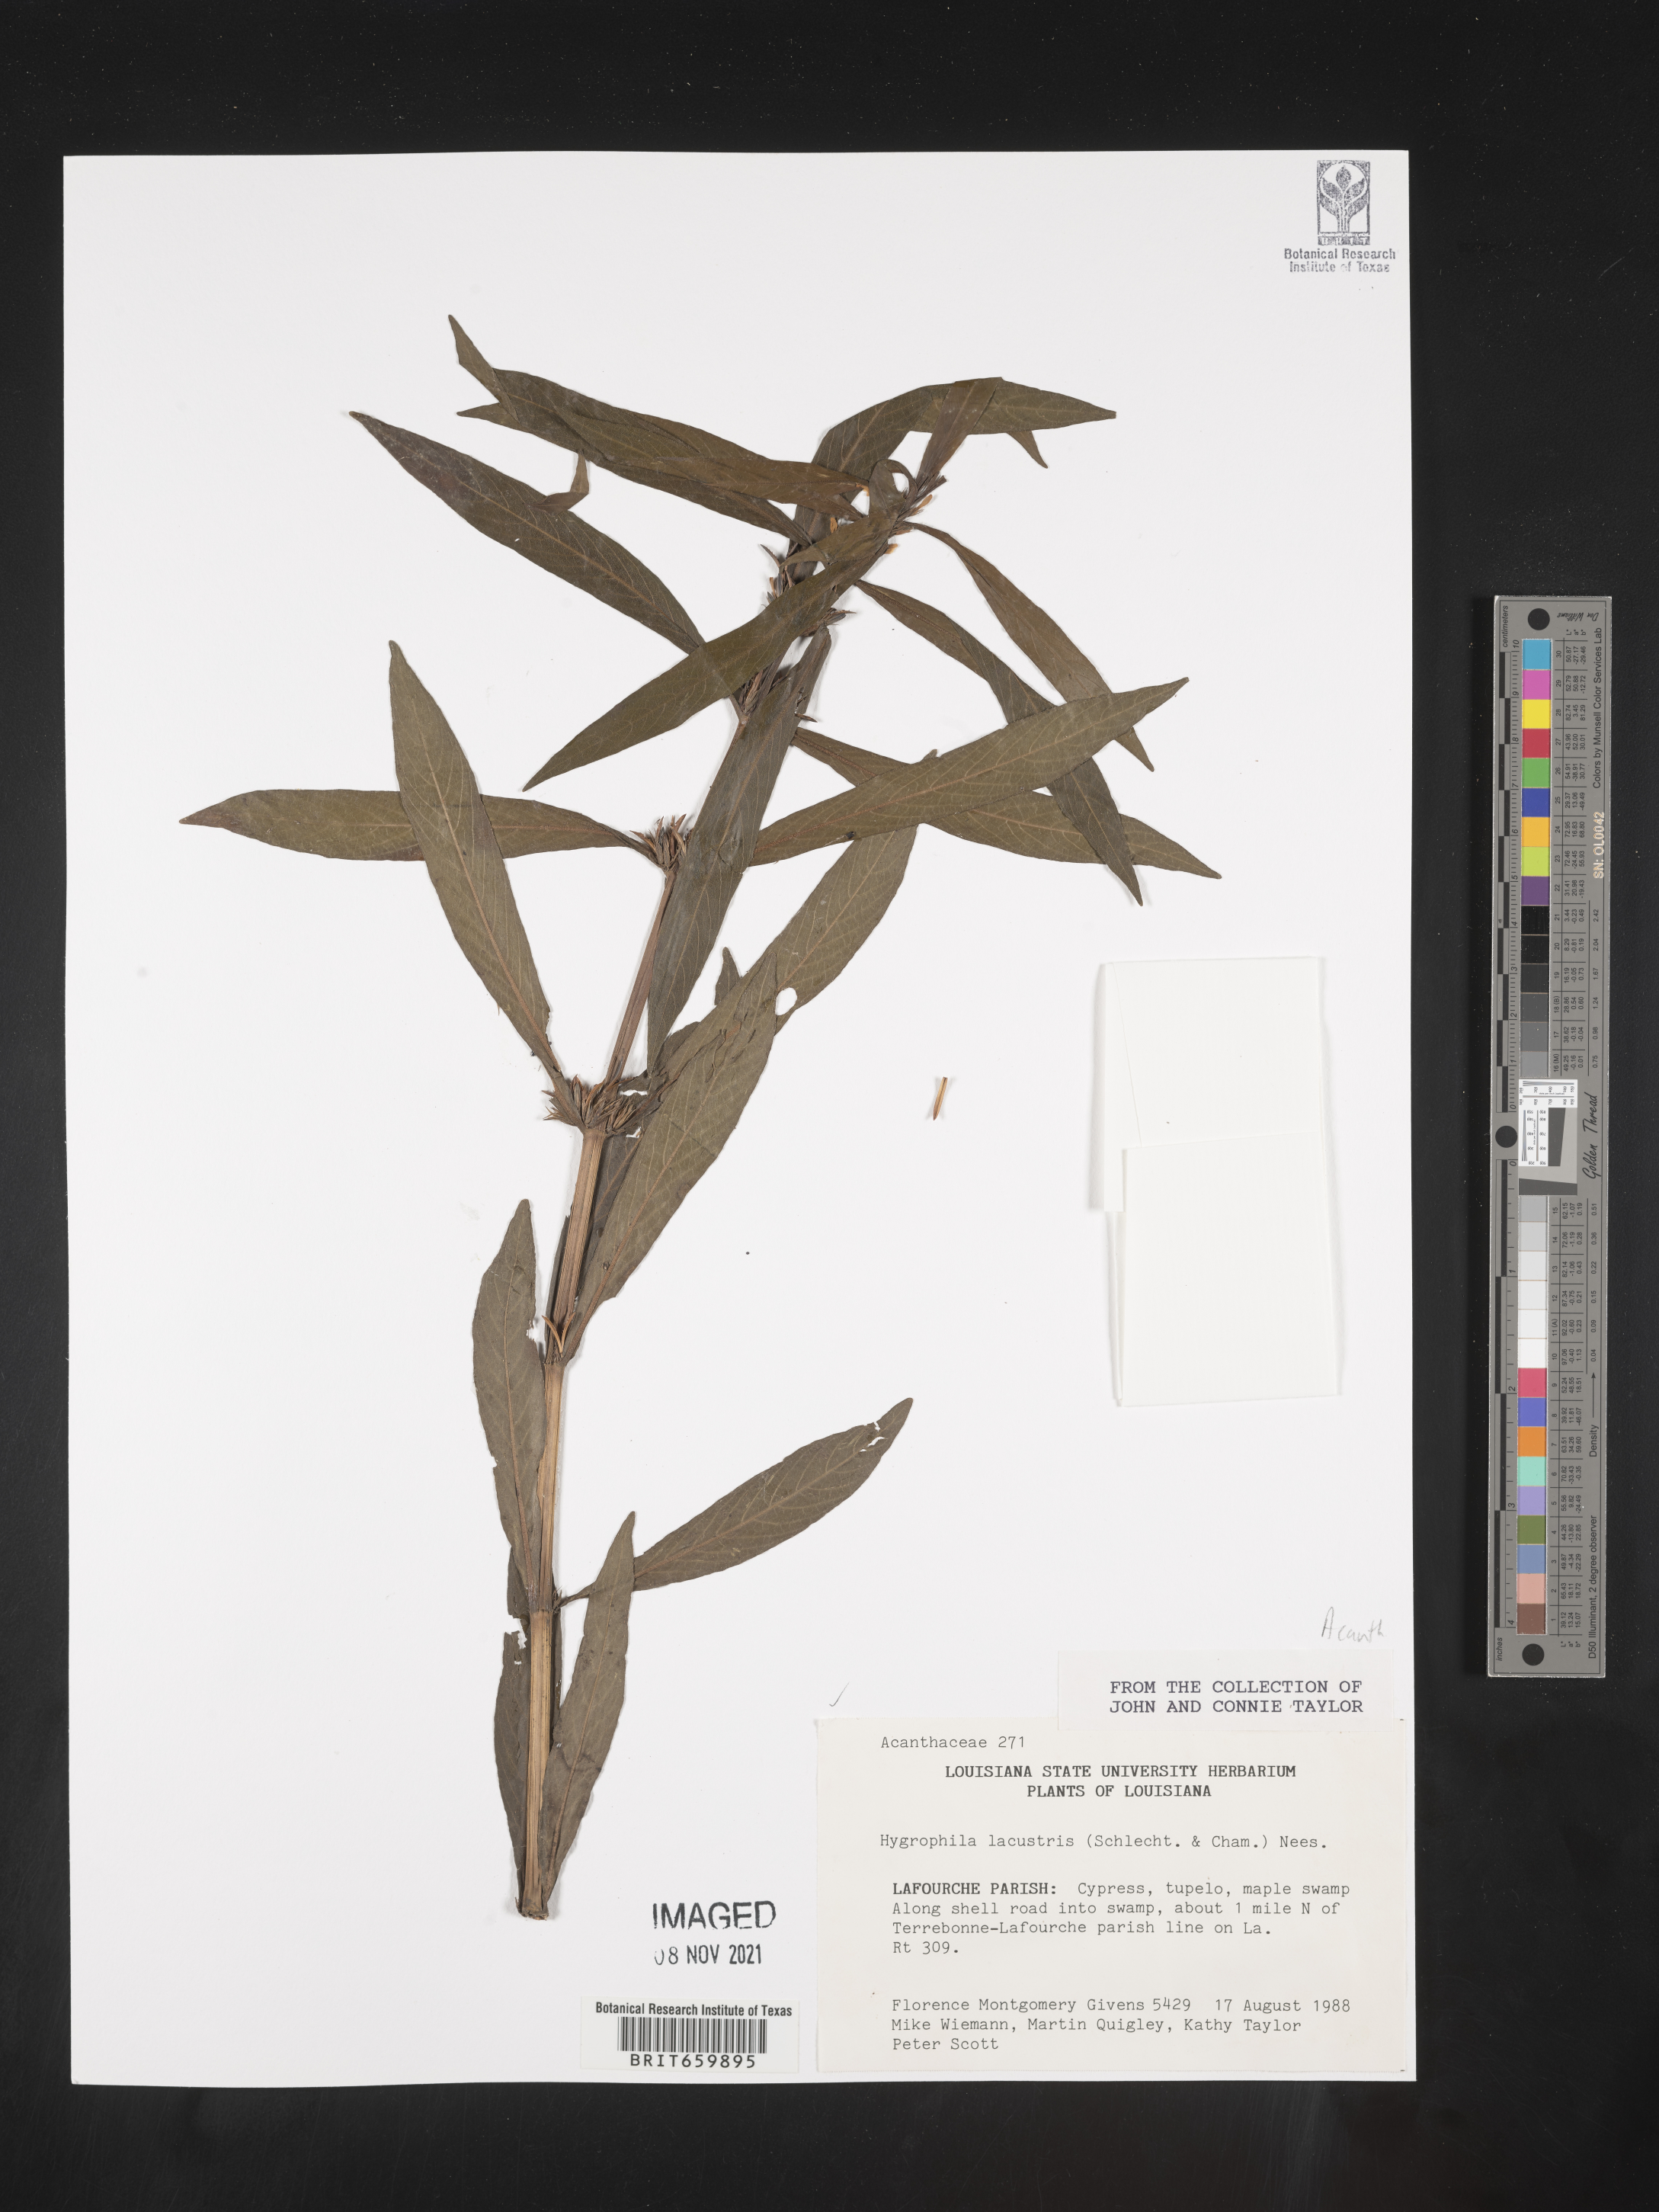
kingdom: Plantae
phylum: Tracheophyta
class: Magnoliopsida
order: Lamiales
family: Acanthaceae
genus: Hygrophila
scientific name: Hygrophila costata
